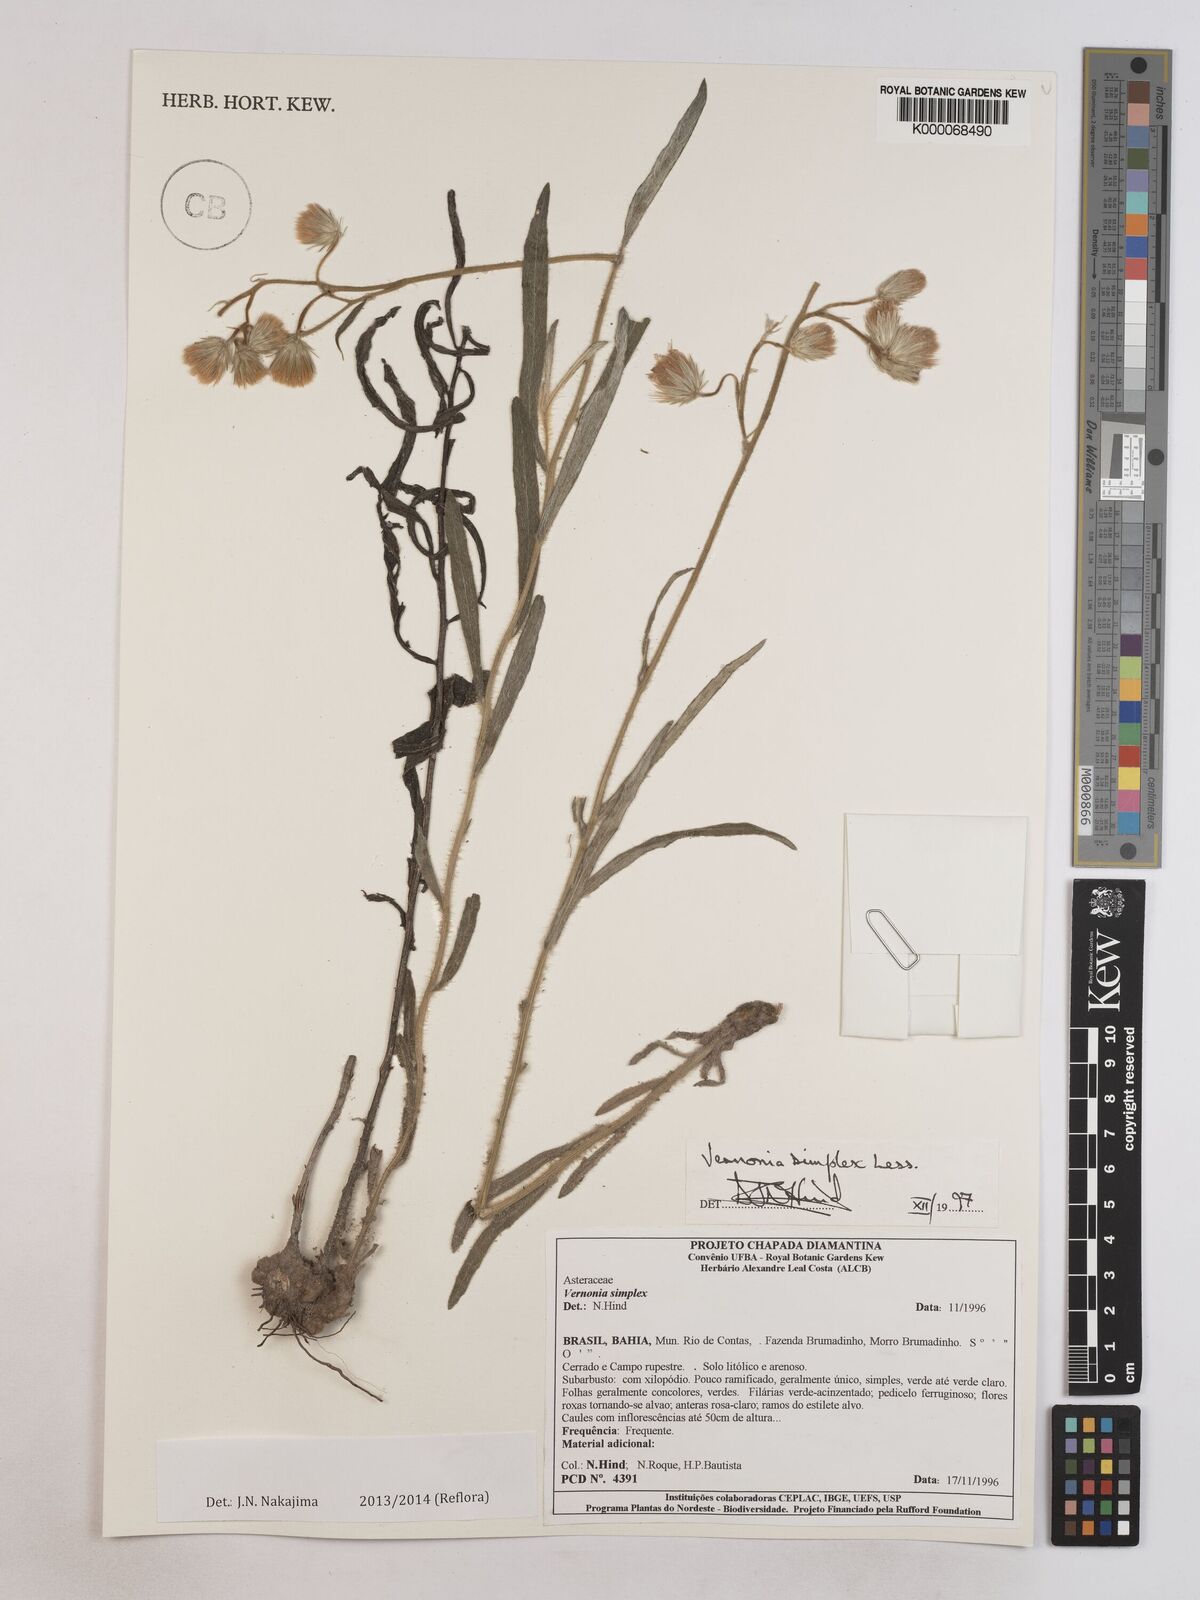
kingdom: Plantae
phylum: Tracheophyta
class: Magnoliopsida
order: Asterales
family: Asteraceae
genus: Chrysolaena
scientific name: Chrysolaena simplex
